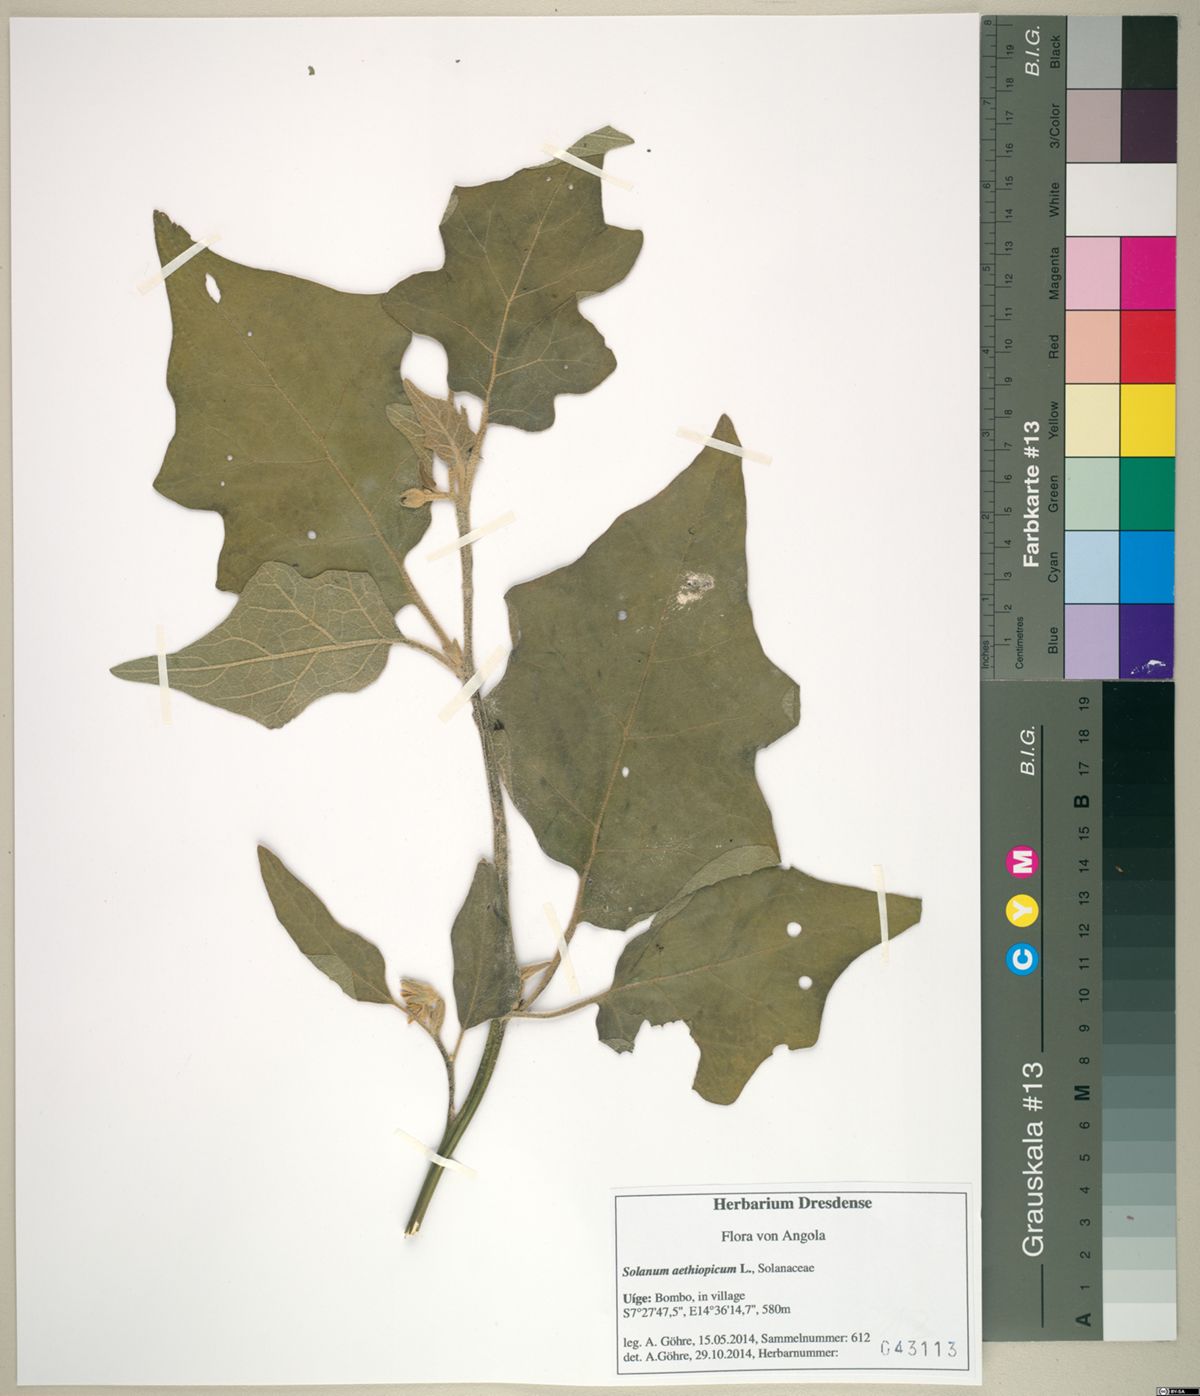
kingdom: Plantae
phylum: Tracheophyta
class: Magnoliopsida
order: Solanales
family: Solanaceae
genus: Solanum
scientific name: Solanum aethiopicum
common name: Gilo
